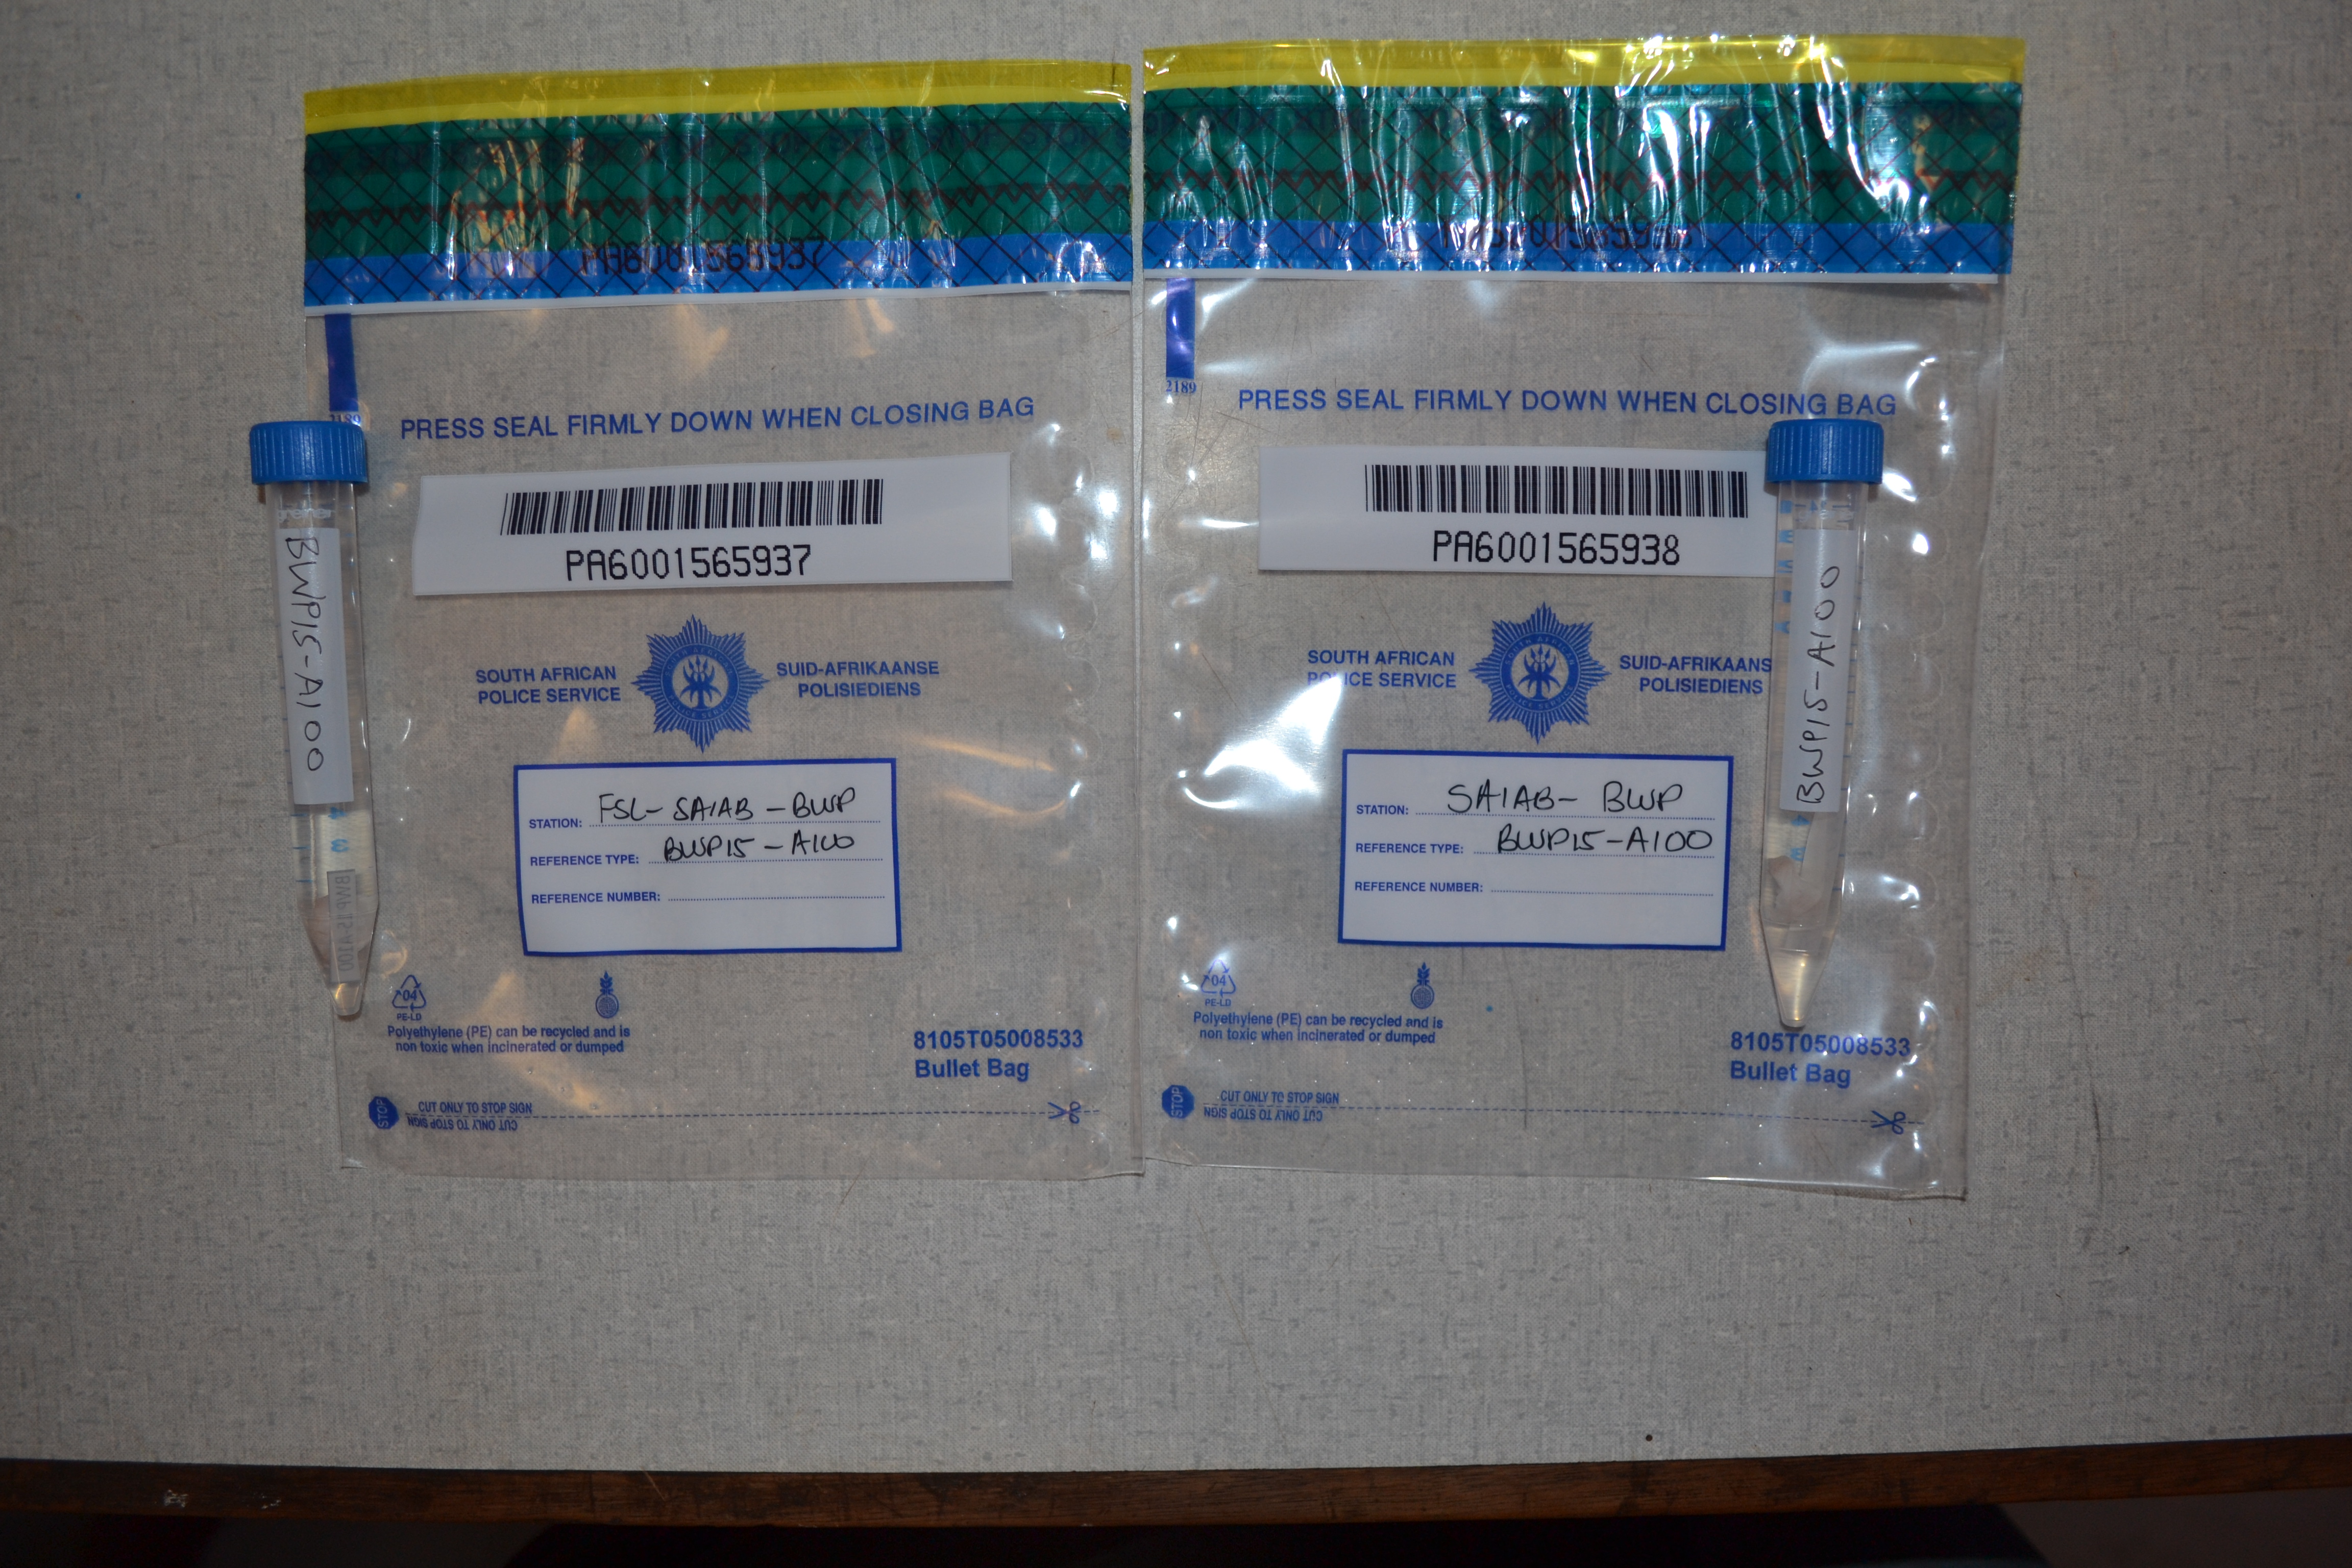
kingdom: Animalia
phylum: Chordata
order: Perciformes
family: Sciaenidae
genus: Atractoscion
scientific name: Atractoscion aequidens
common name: Geelbeck croaker
